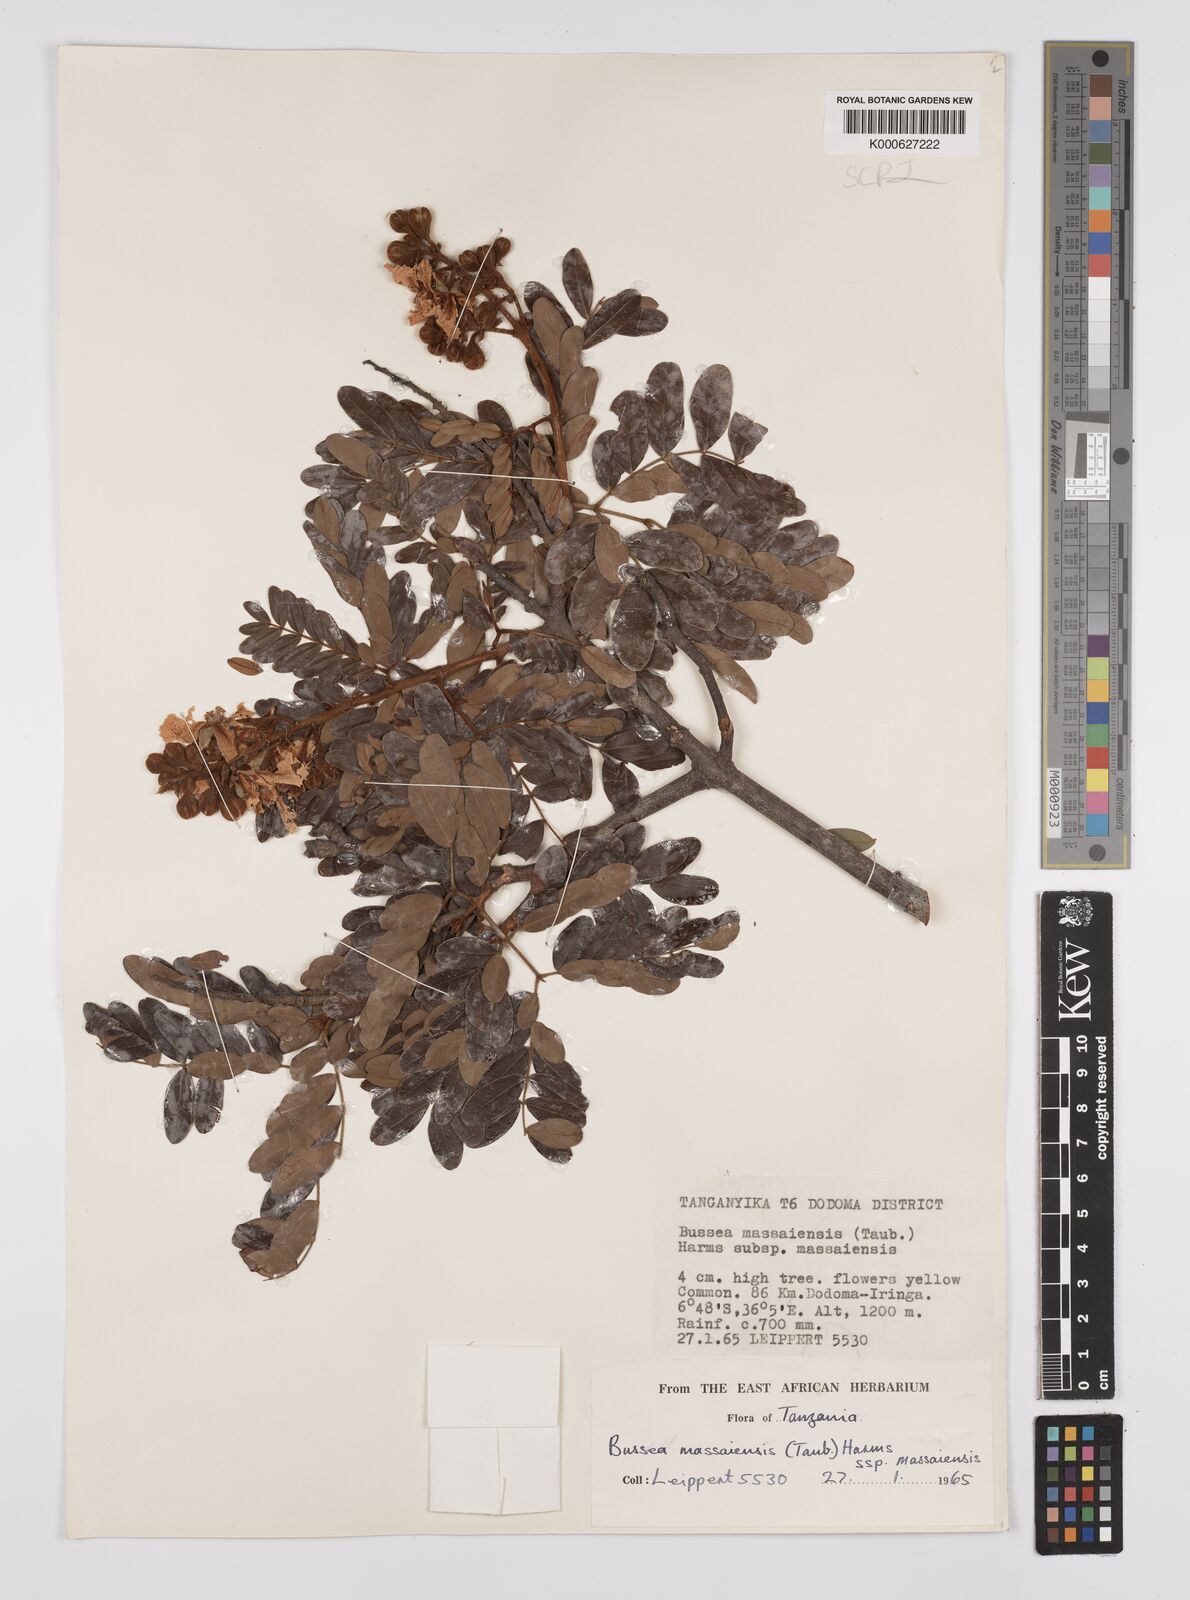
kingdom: Plantae
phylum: Tracheophyta
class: Magnoliopsida
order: Fabales
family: Fabaceae
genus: Bussea
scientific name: Bussea
